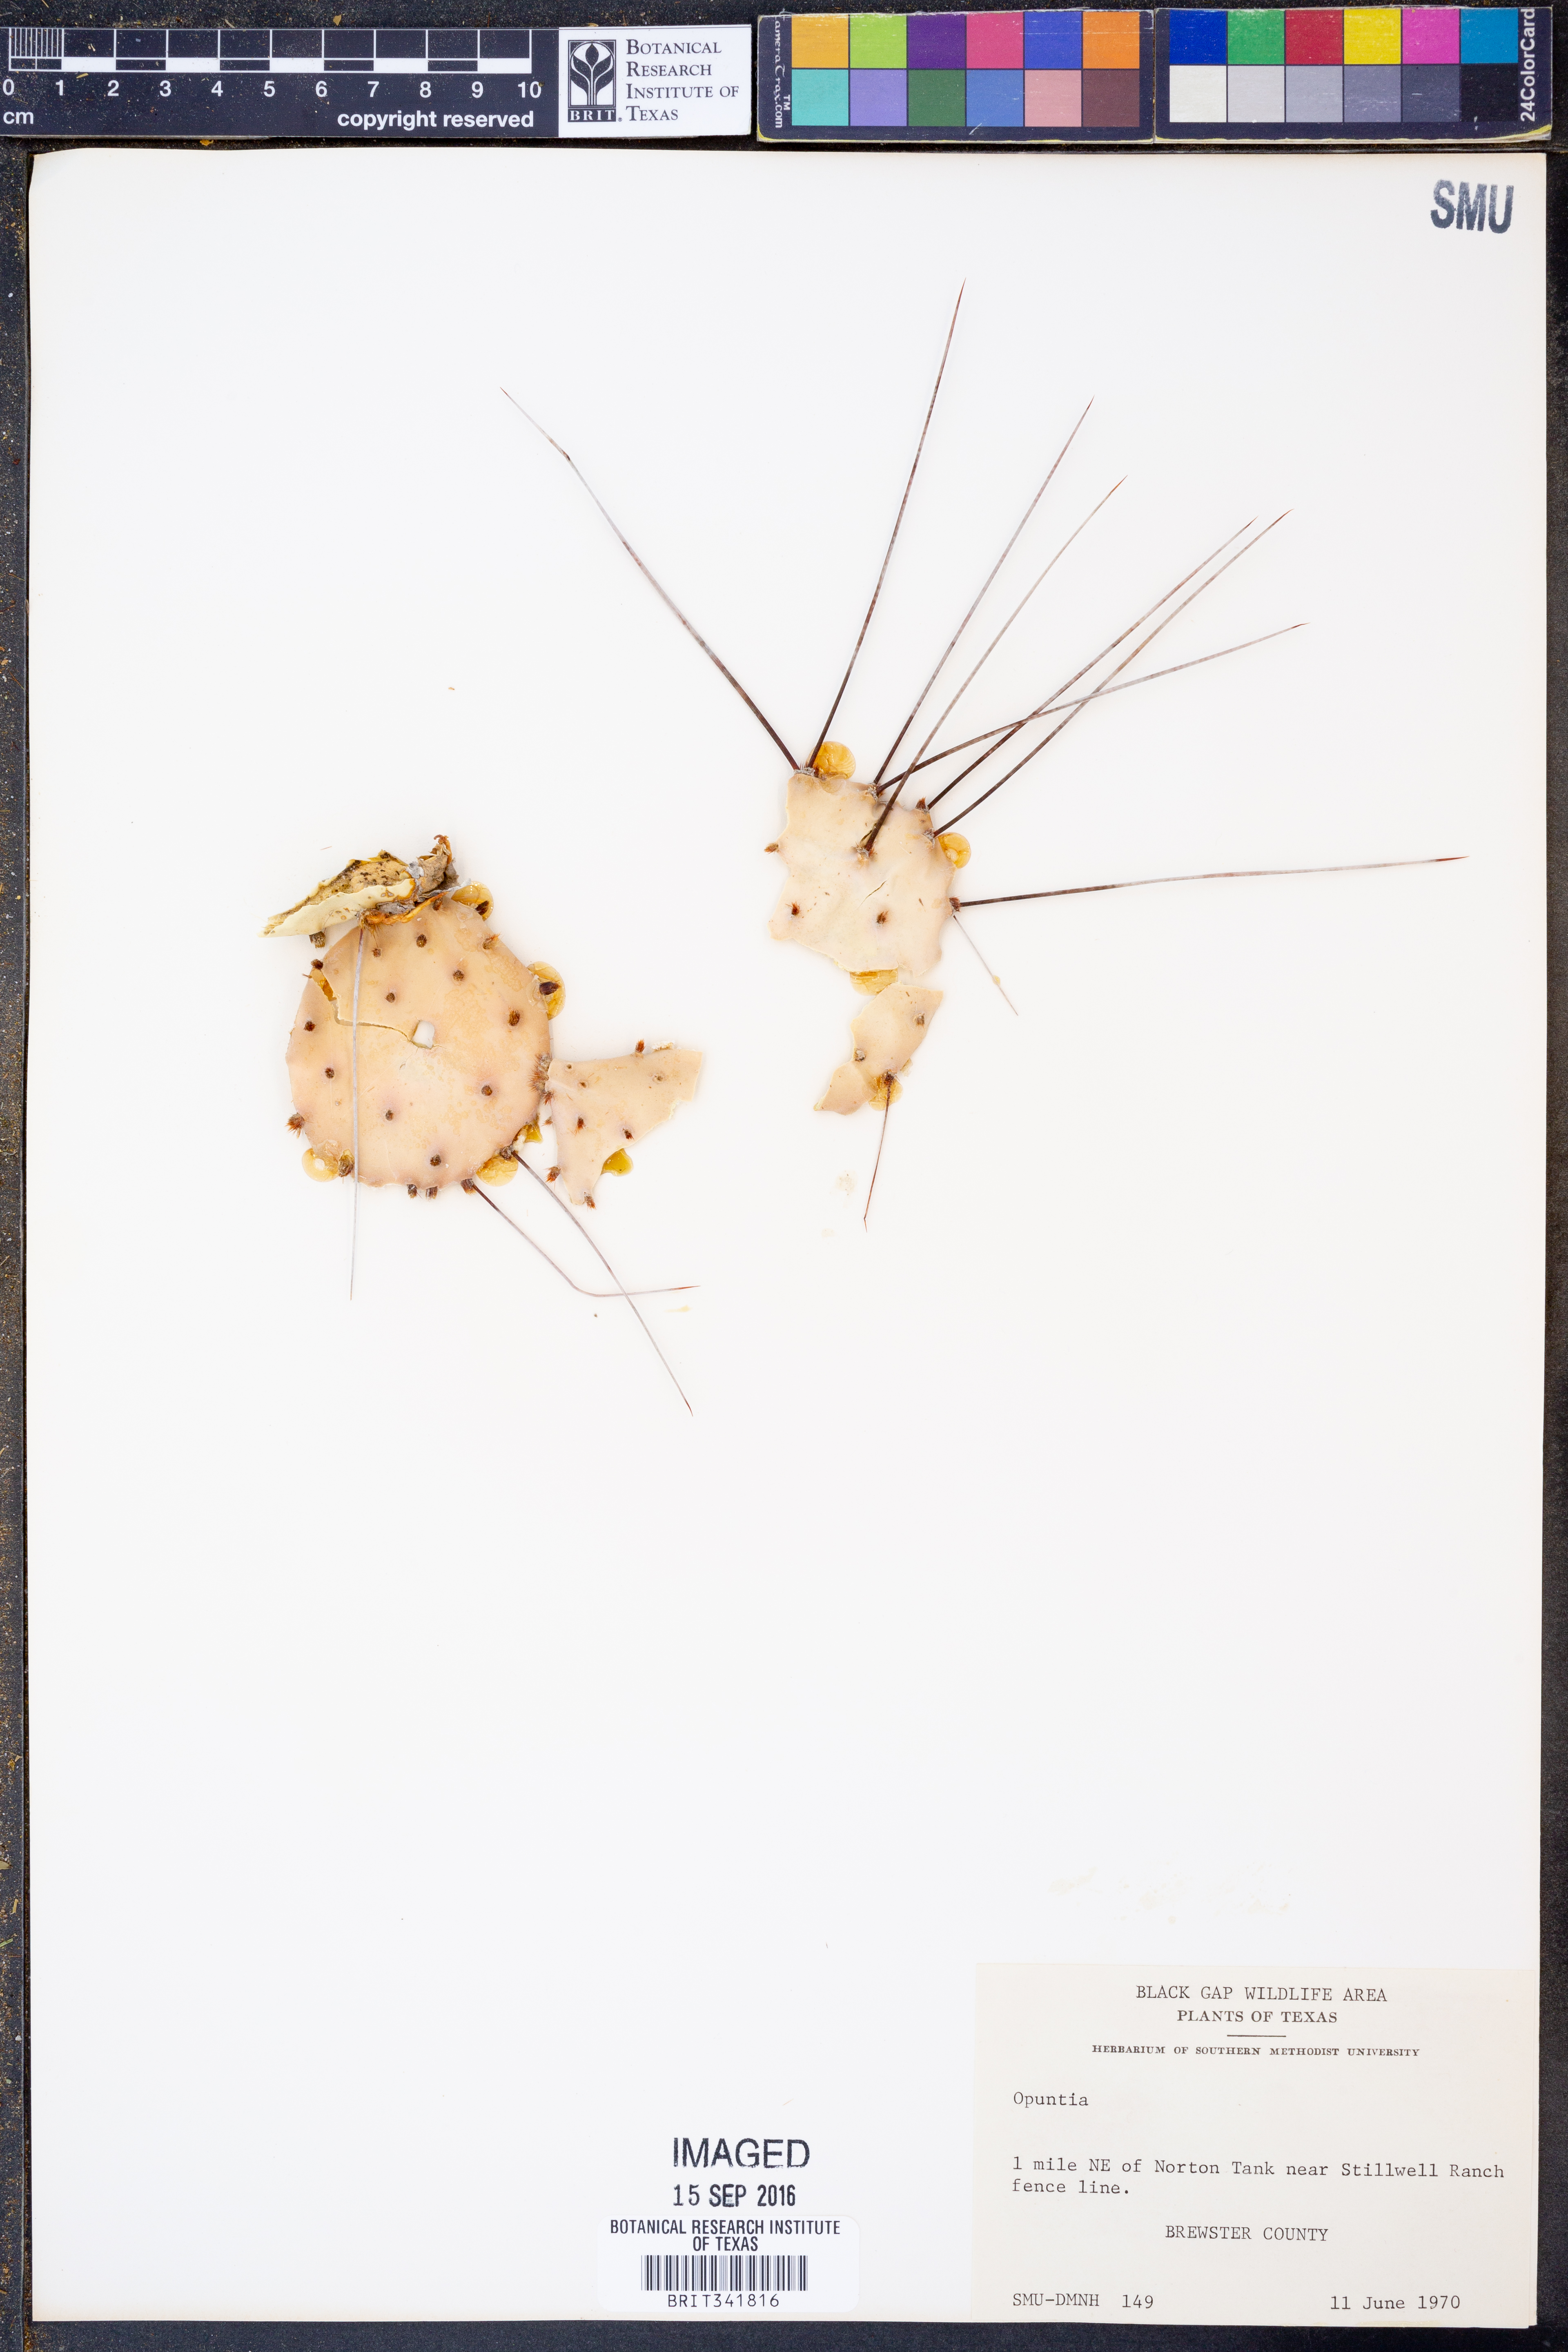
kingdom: Plantae
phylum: Tracheophyta
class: Magnoliopsida
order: Caryophyllales
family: Cactaceae
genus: Opuntia
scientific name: Opuntia
